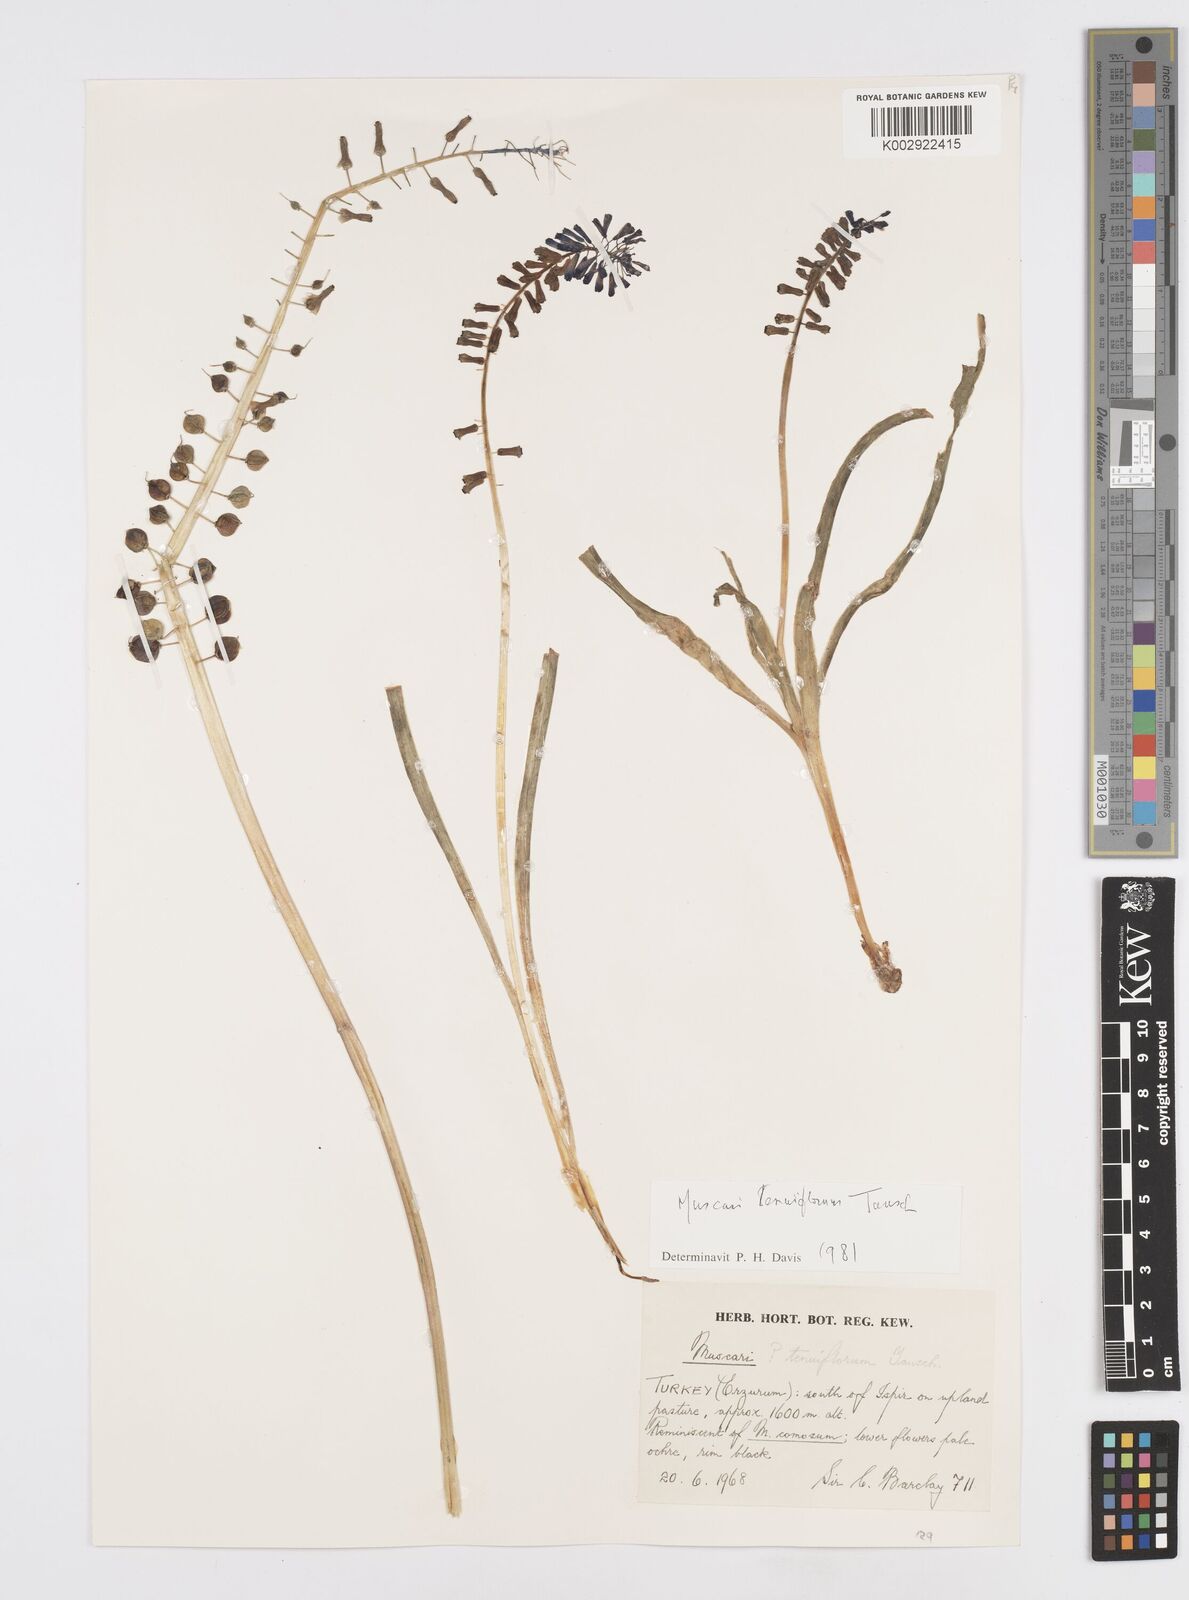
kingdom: Plantae
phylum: Tracheophyta
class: Liliopsida
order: Asparagales
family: Asparagaceae
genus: Muscari
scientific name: Muscari tenuiflorum
